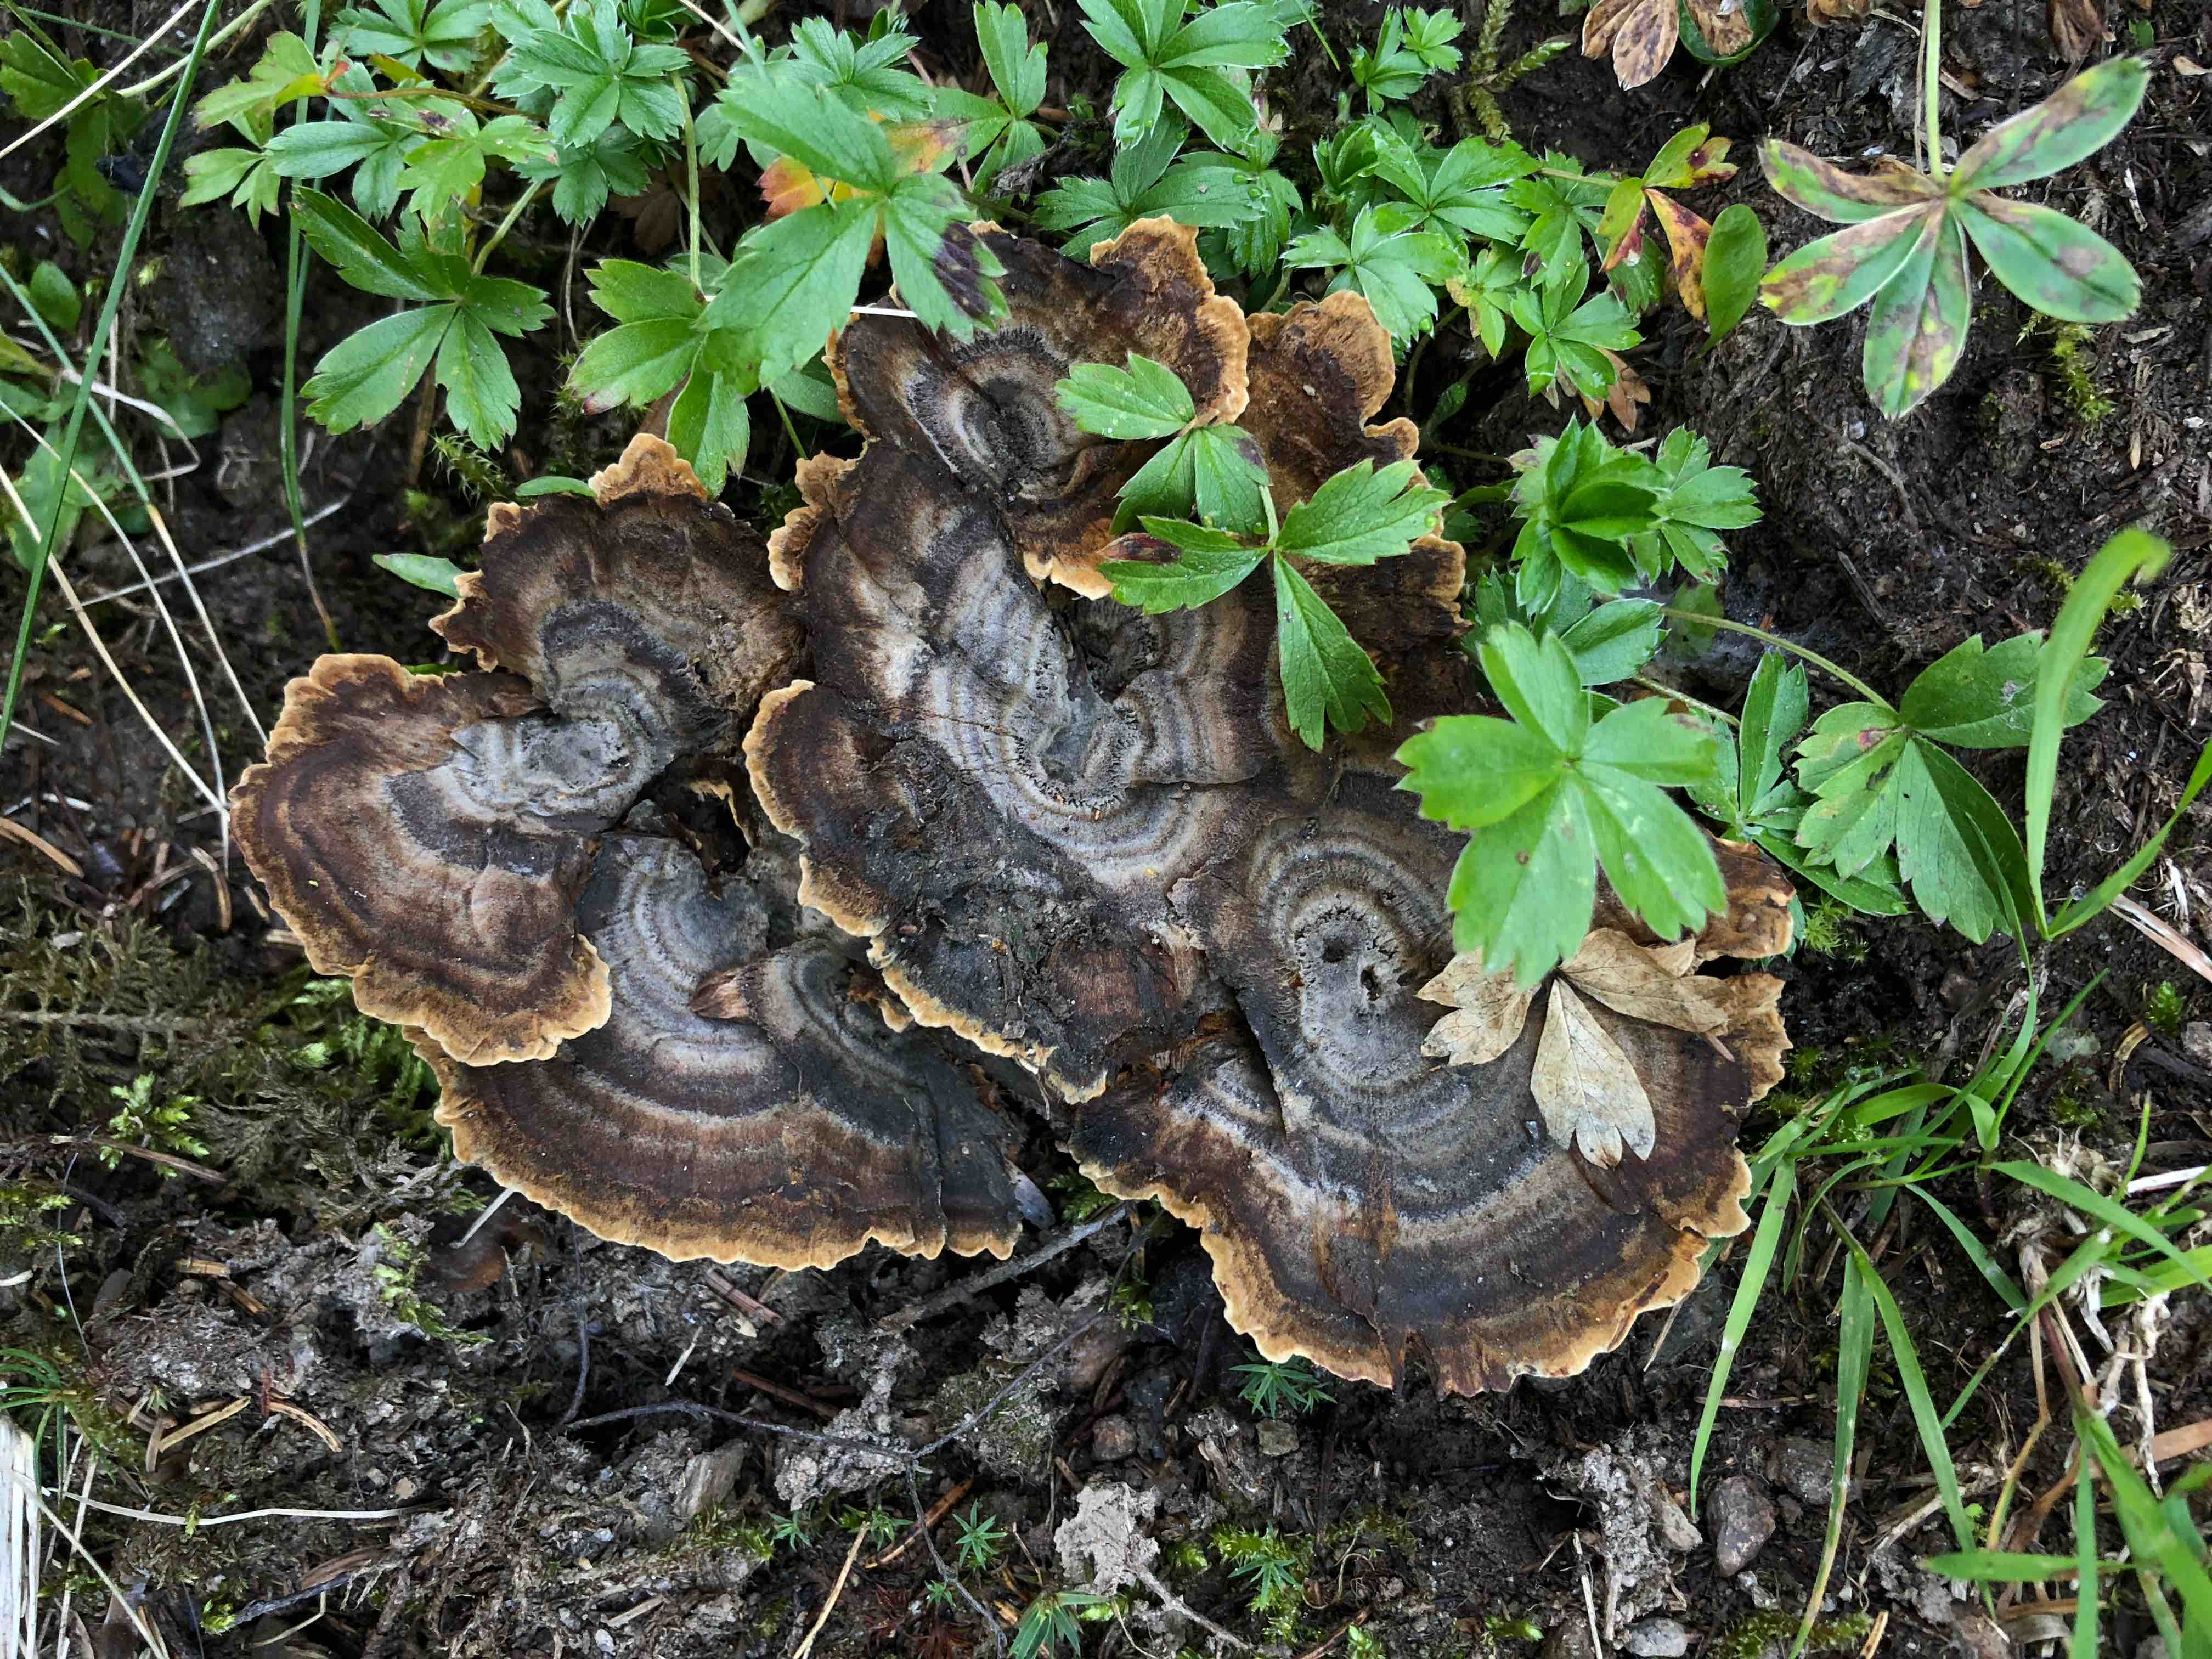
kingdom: Fungi
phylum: Basidiomycota
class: Agaricomycetes
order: Hymenochaetales
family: Hymenochaetaceae
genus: Coltricia
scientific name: Coltricia perennis
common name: almindelig sandporesvamp
